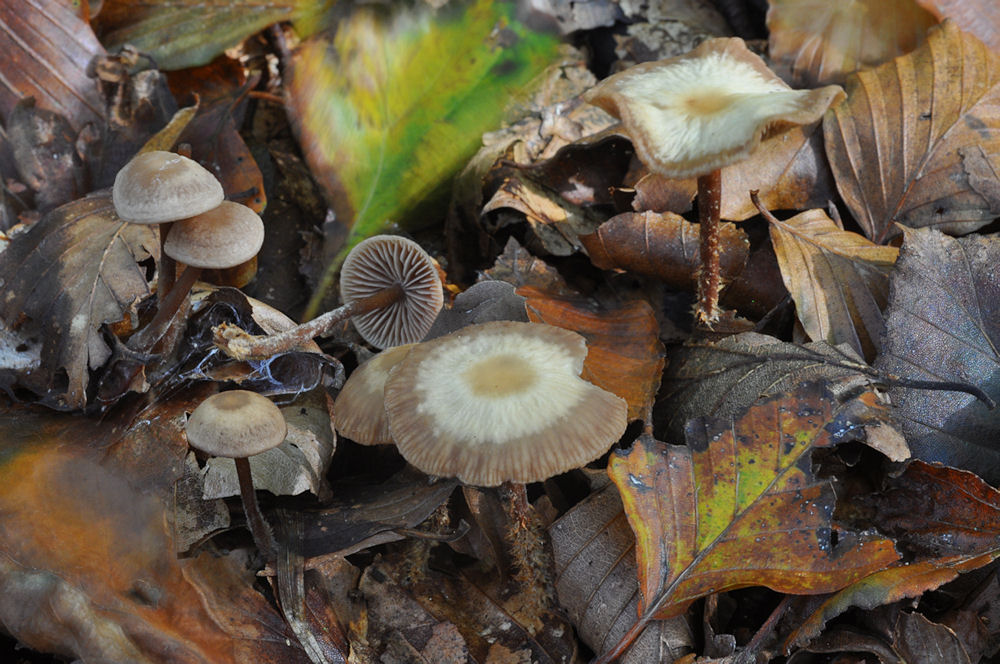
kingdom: Fungi
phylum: Basidiomycota
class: Agaricomycetes
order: Agaricales
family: Omphalotaceae
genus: Gymnopus
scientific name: Gymnopus fagiphilus
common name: bøgeløv-fladhat
